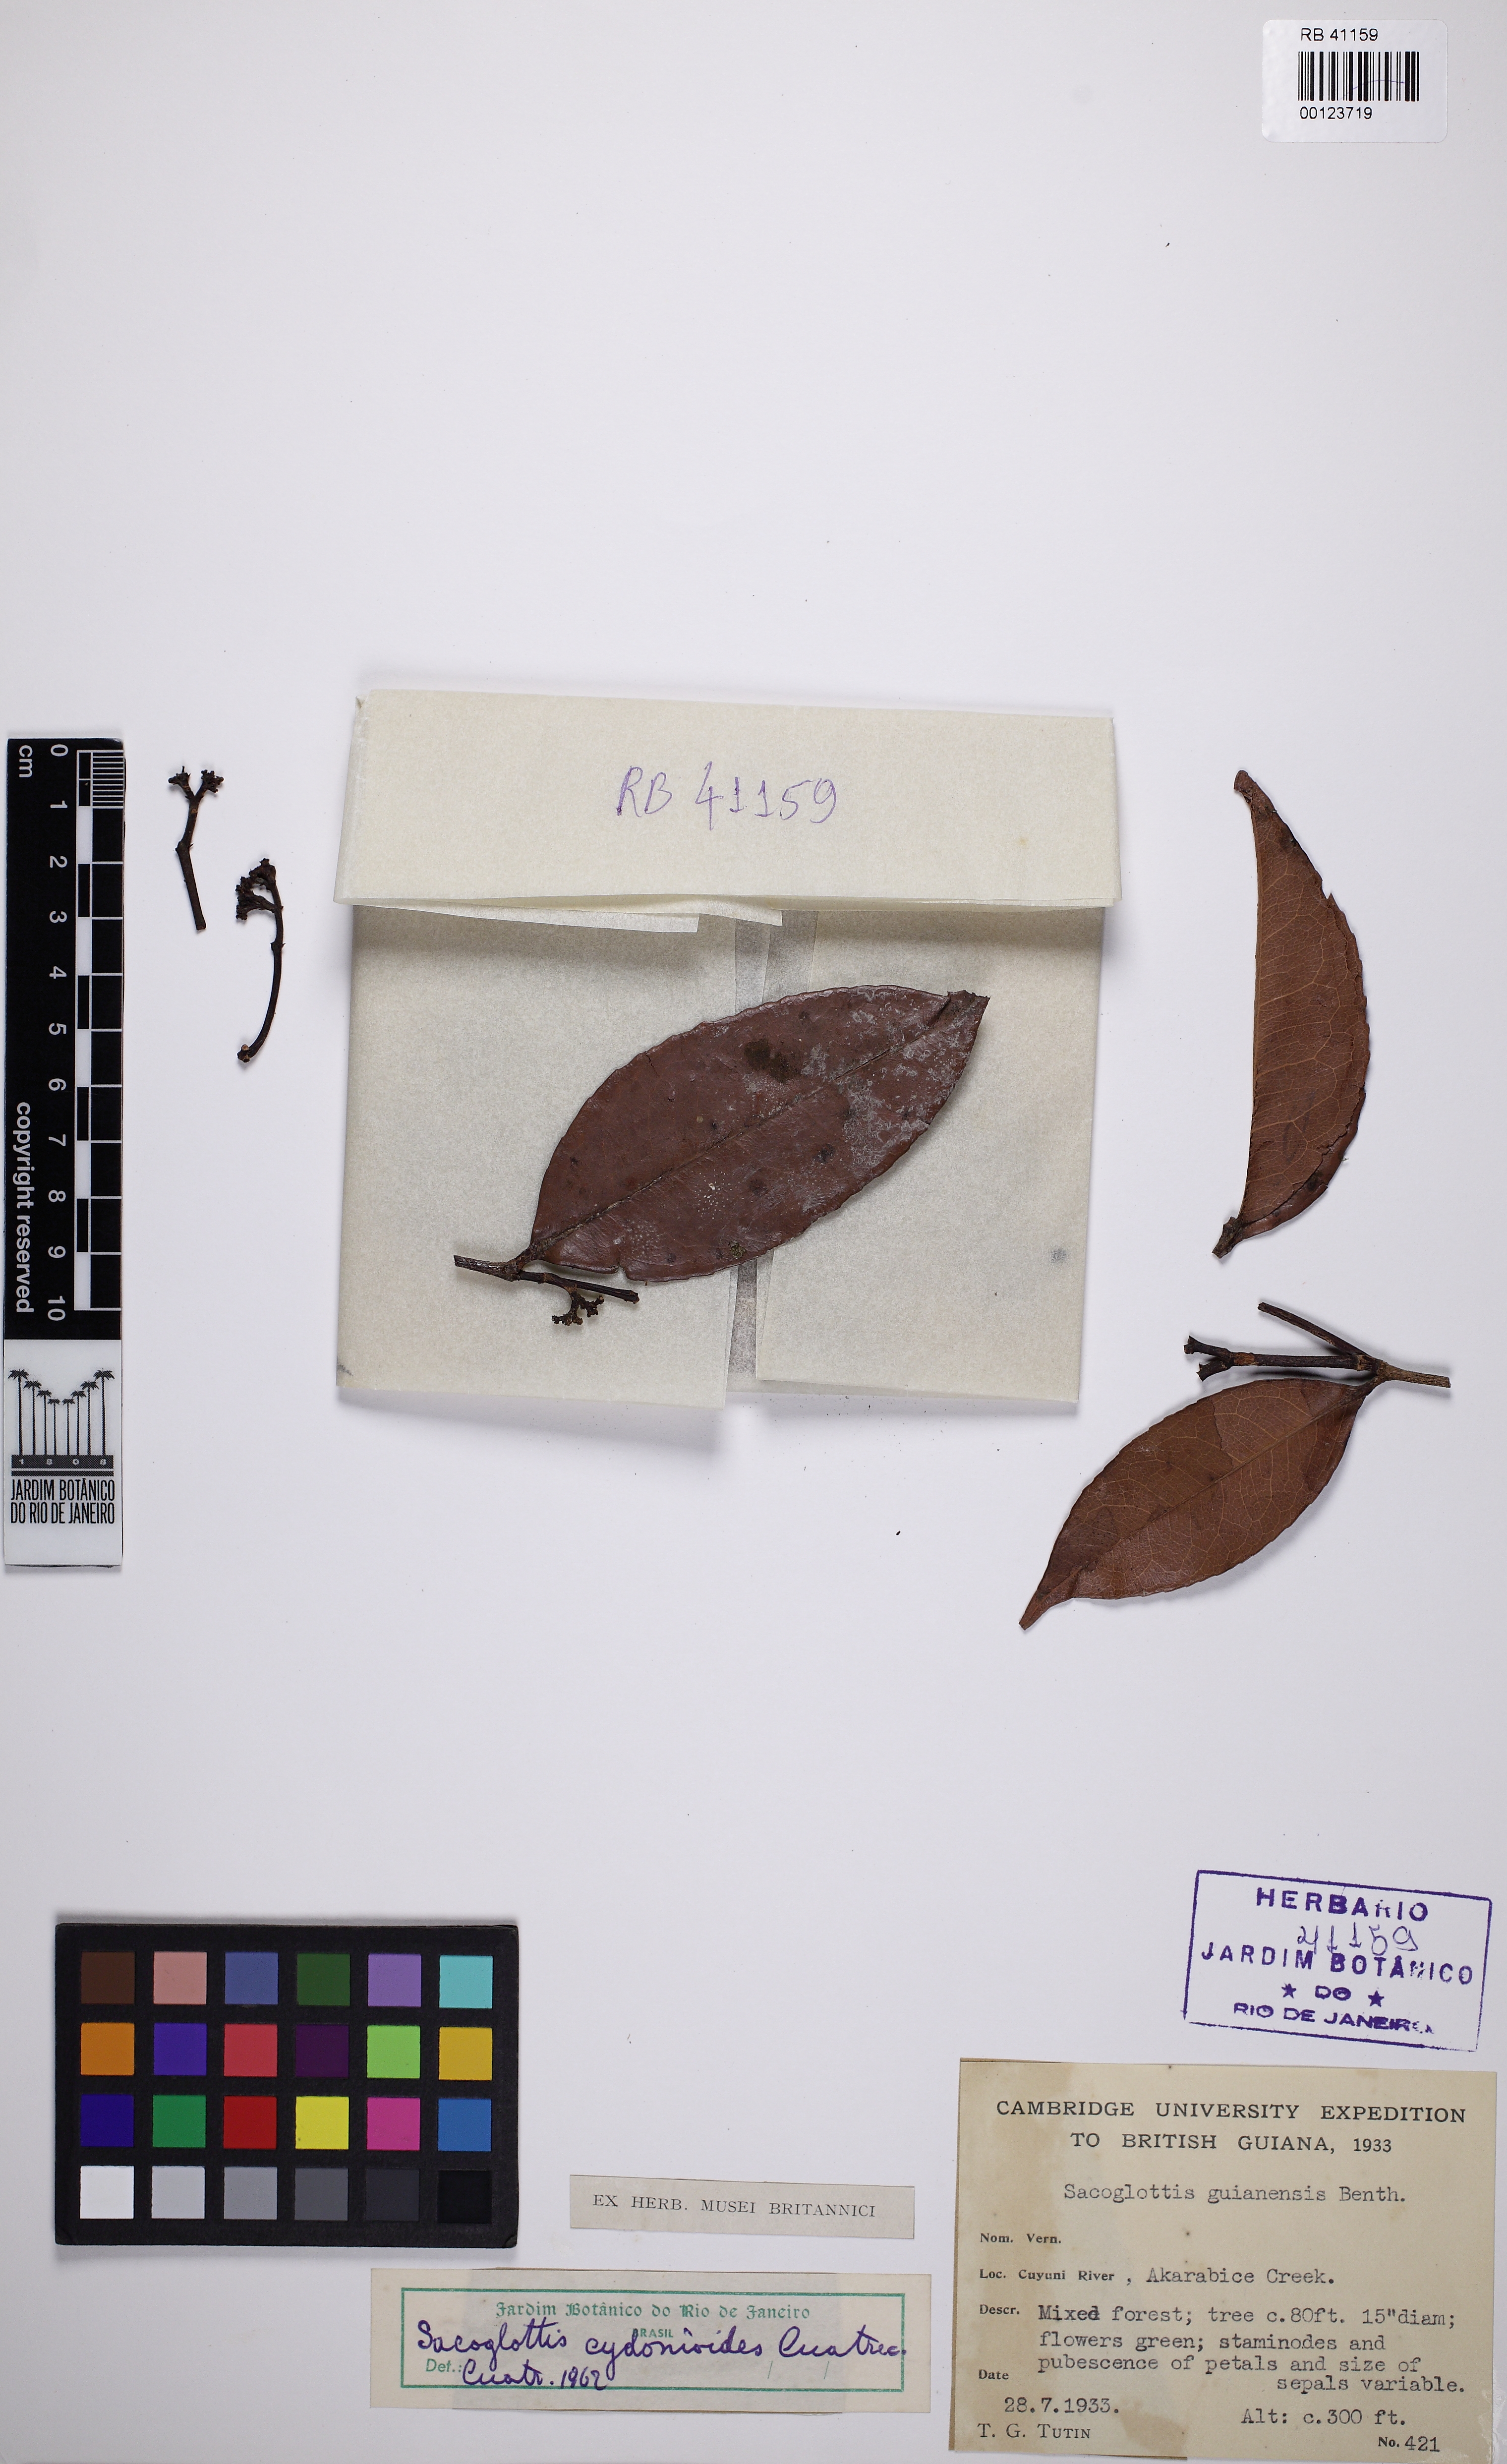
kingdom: Plantae
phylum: Tracheophyta
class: Magnoliopsida
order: Malpighiales
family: Humiriaceae
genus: Sacoglottis
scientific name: Sacoglottis cydonioides
